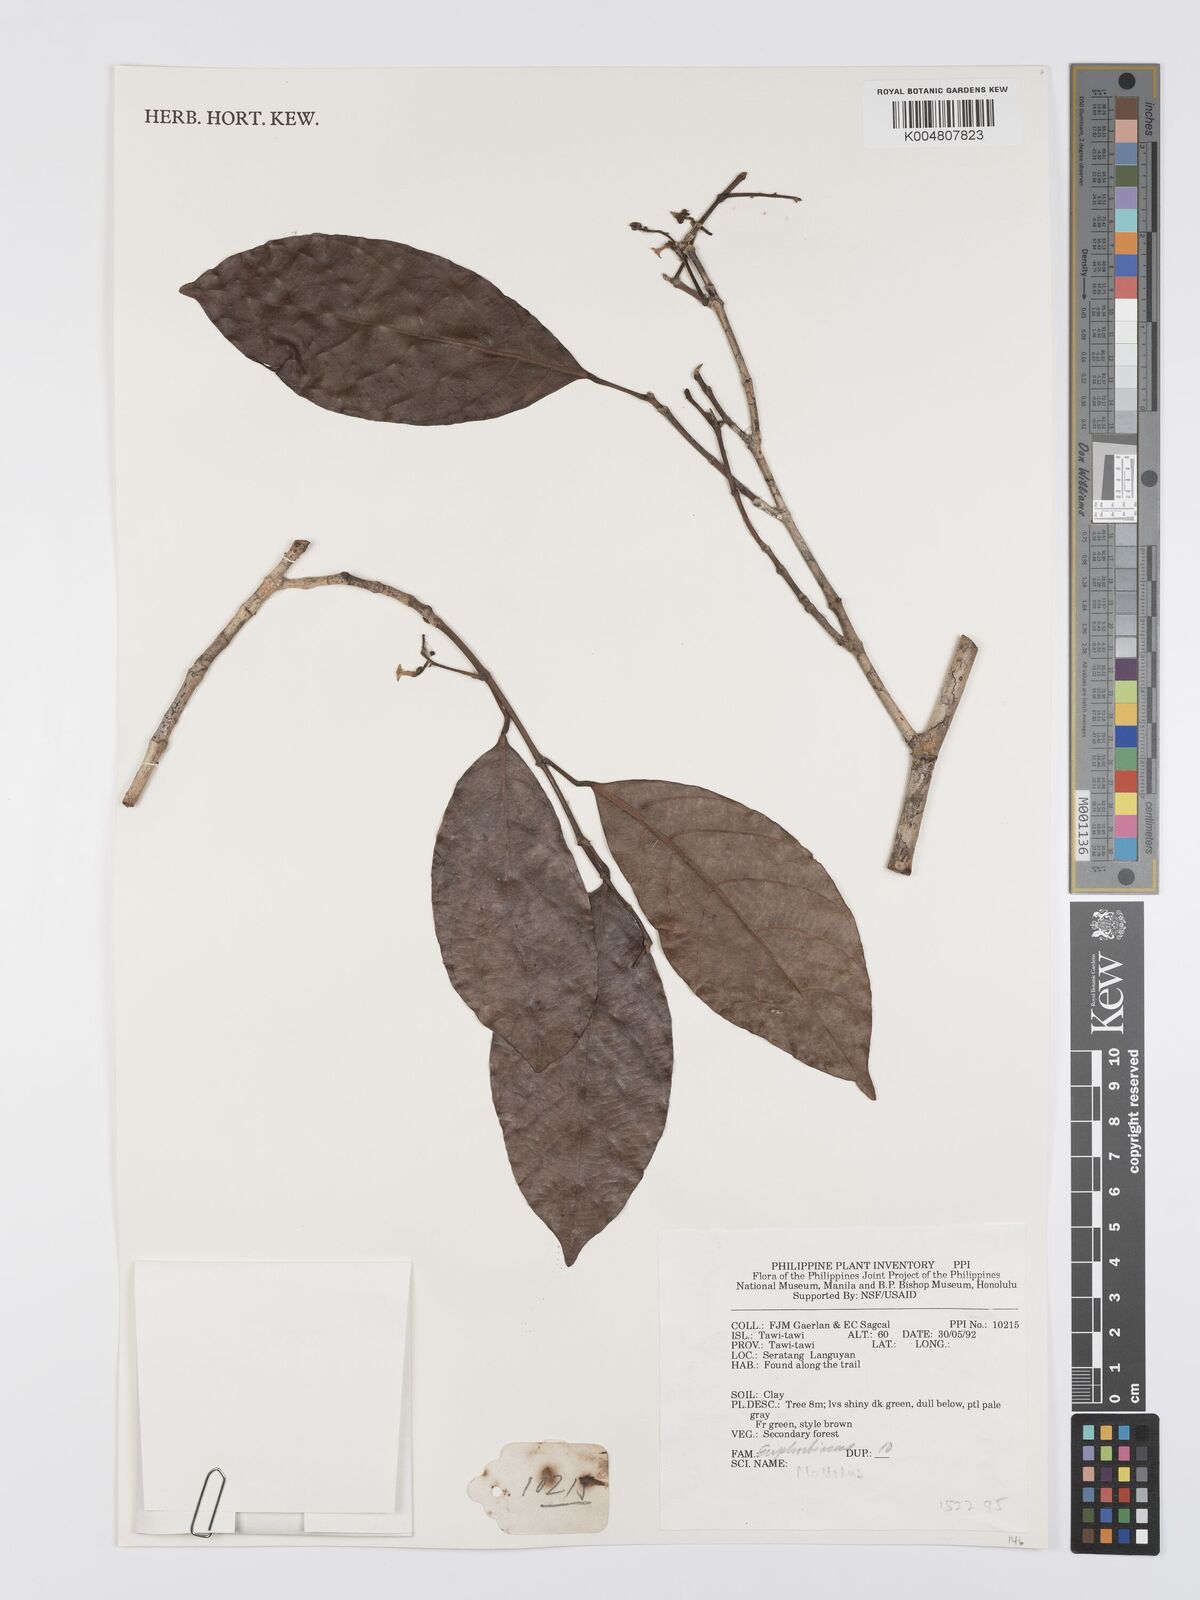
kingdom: Plantae
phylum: Tracheophyta
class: Magnoliopsida
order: Malpighiales
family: Euphorbiaceae
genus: Mallotus
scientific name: Mallotus
